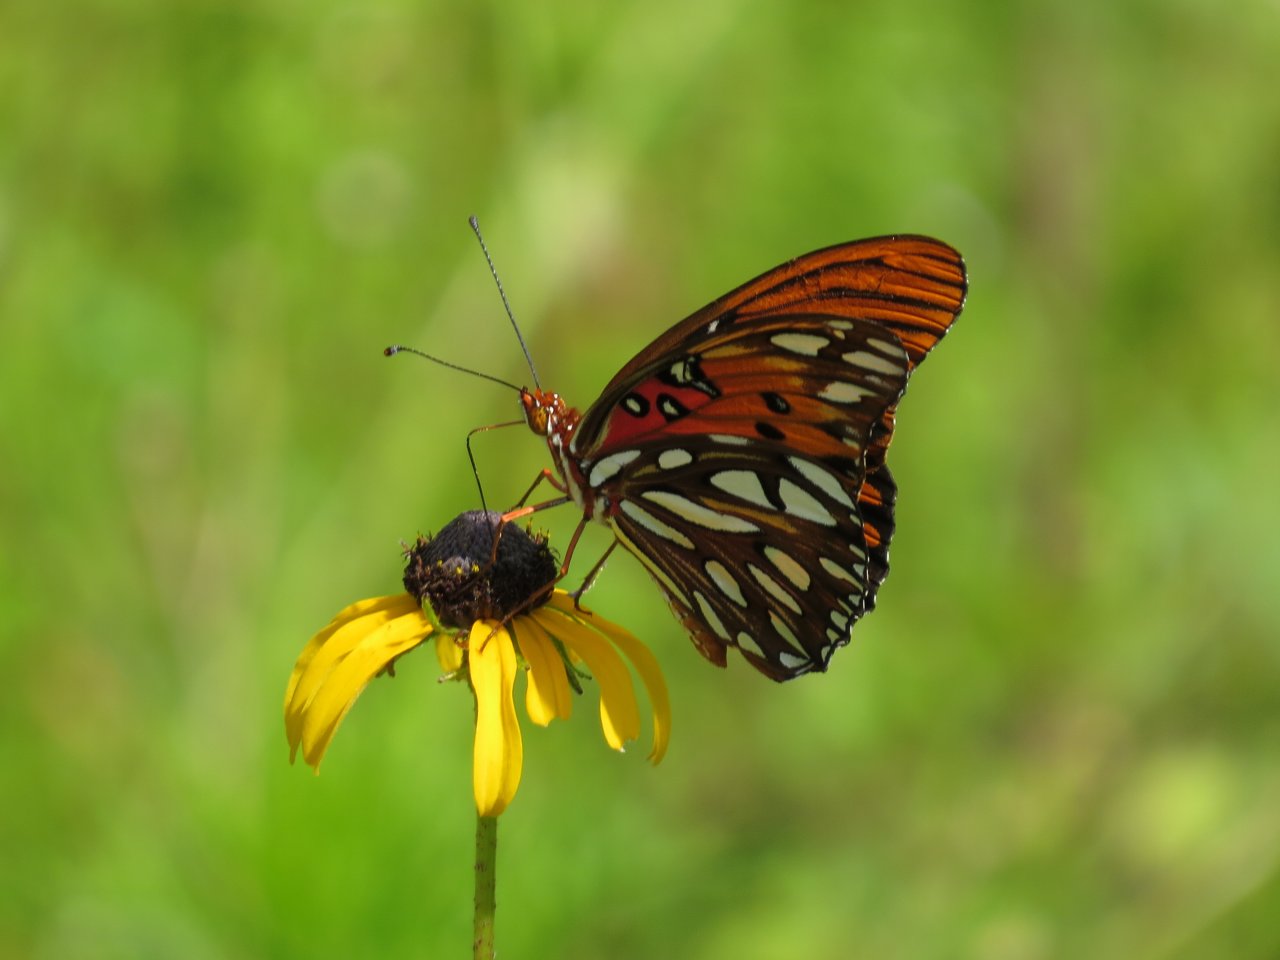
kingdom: Animalia
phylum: Arthropoda
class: Insecta
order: Lepidoptera
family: Nymphalidae
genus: Dione
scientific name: Dione vanillae
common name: Gulf Fritillary
